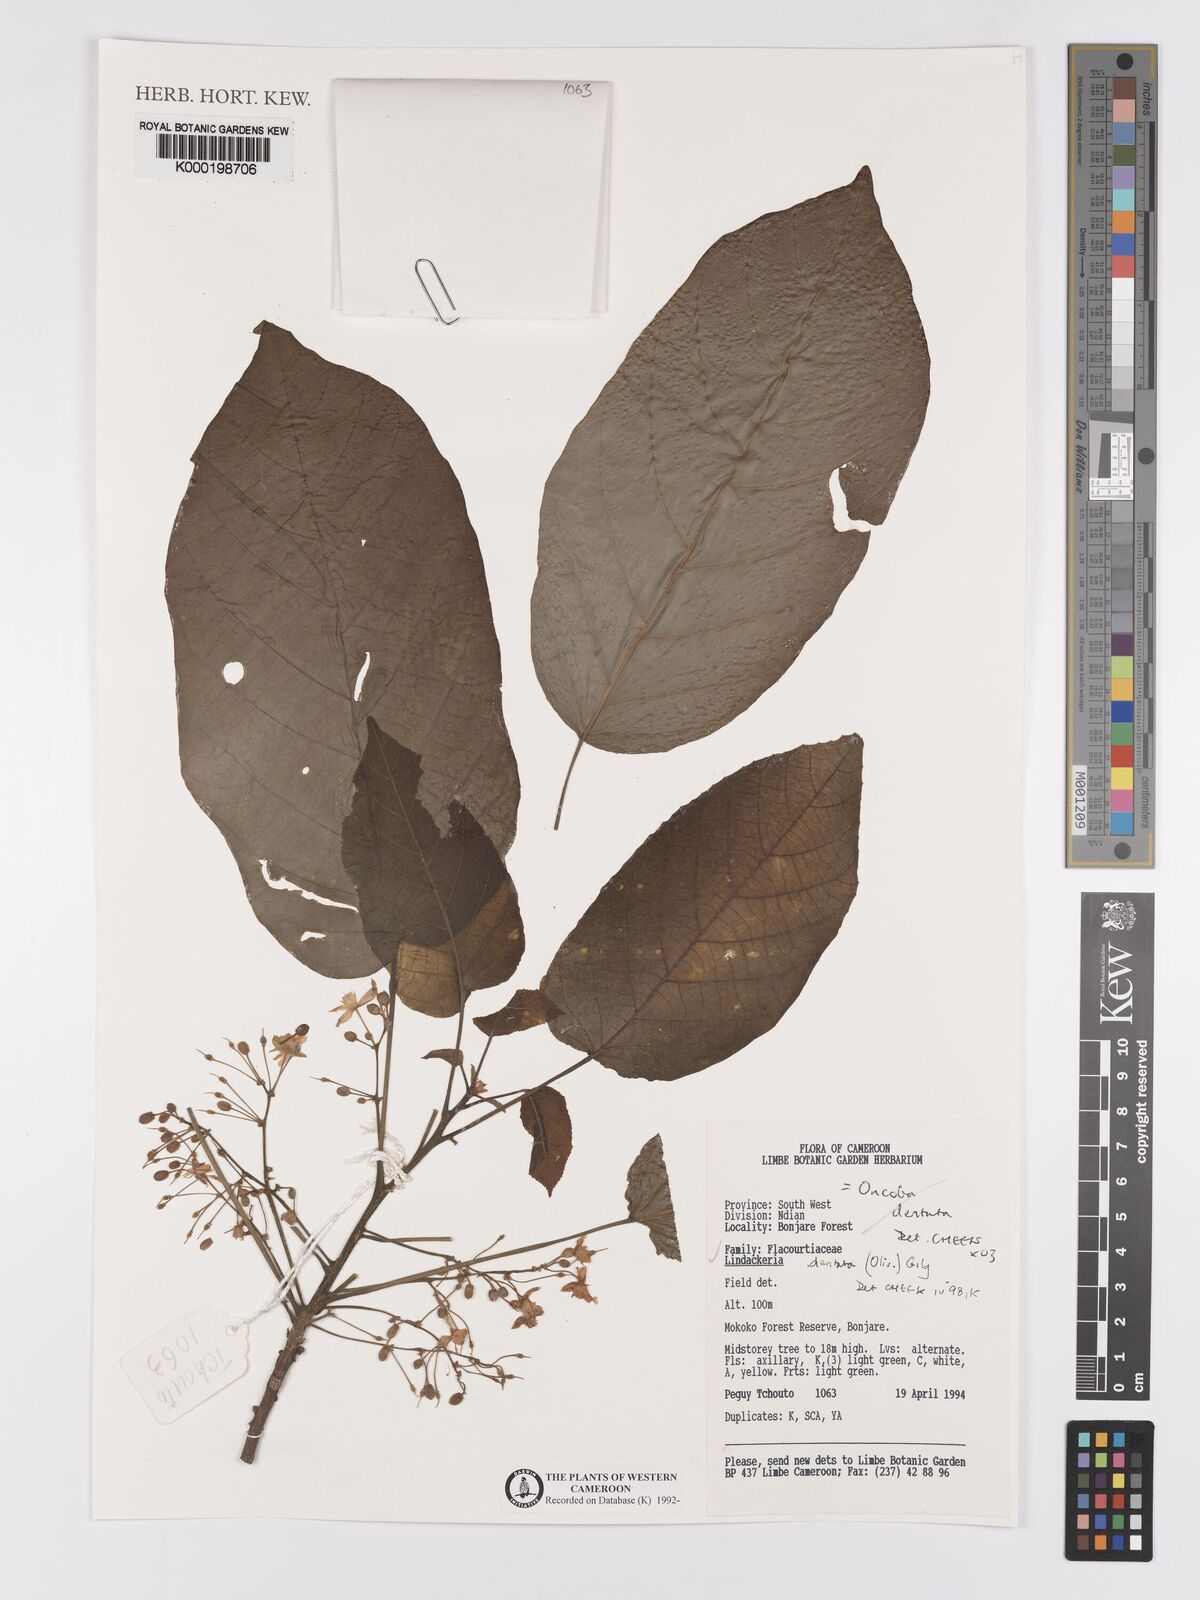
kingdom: Plantae
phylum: Tracheophyta
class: Magnoliopsida
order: Malpighiales
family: Achariaceae
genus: Lindackeria
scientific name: Lindackeria dentata
